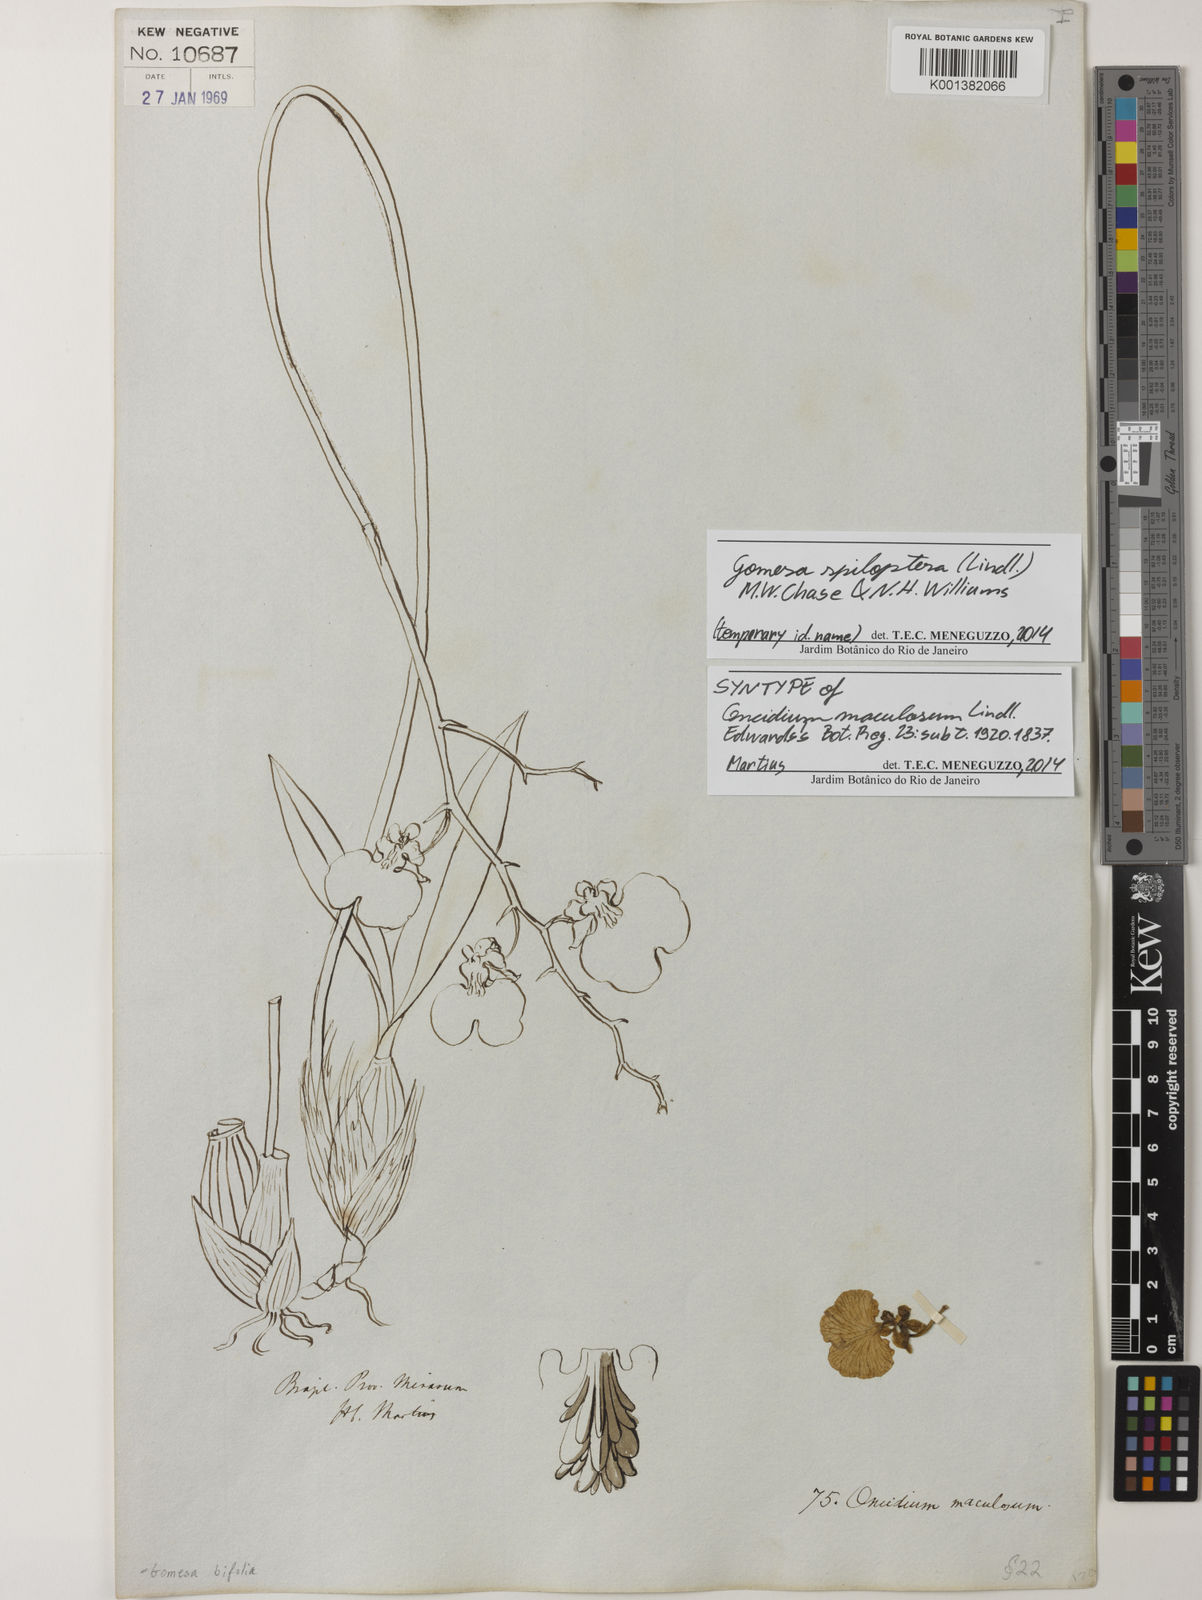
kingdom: Plantae
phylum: Tracheophyta
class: Liliopsida
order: Asparagales
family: Orchidaceae
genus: Gomesa
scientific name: Gomesa maculosa
